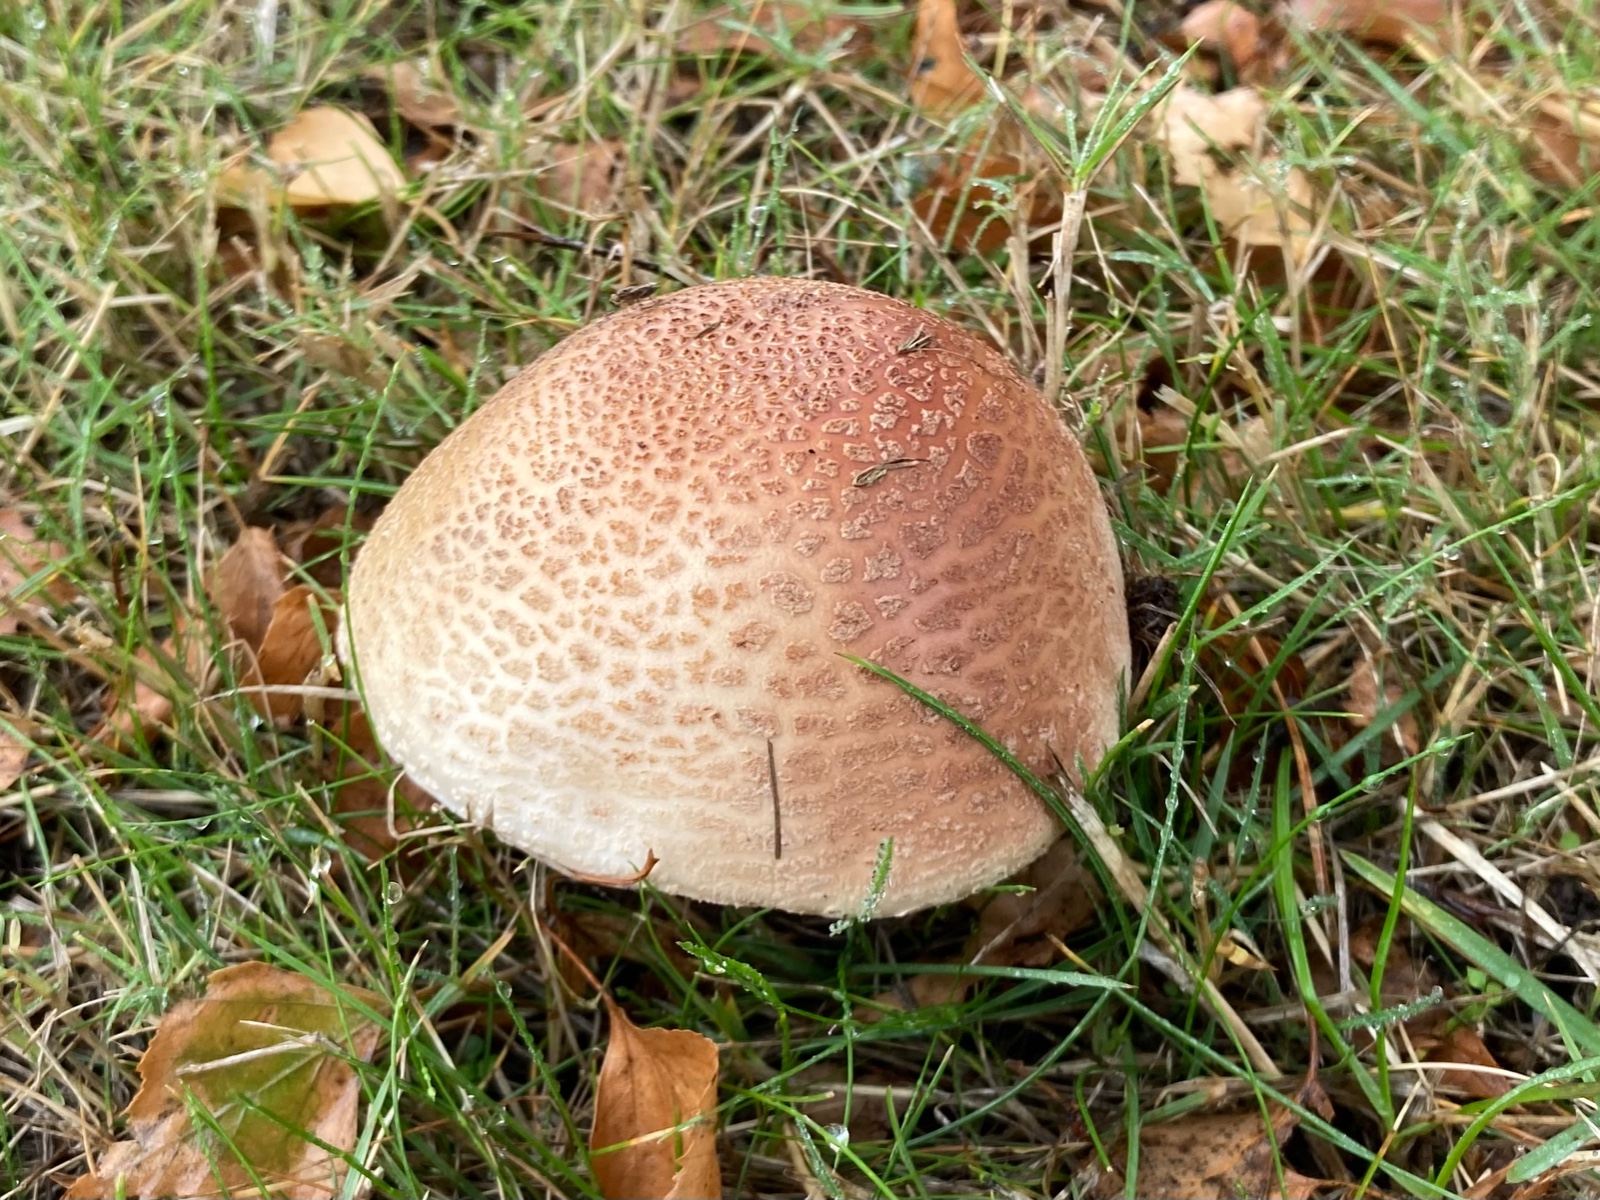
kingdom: Fungi
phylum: Basidiomycota
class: Agaricomycetes
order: Agaricales
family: Amanitaceae
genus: Amanita
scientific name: Amanita rubescens
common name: rødmende fluesvamp
